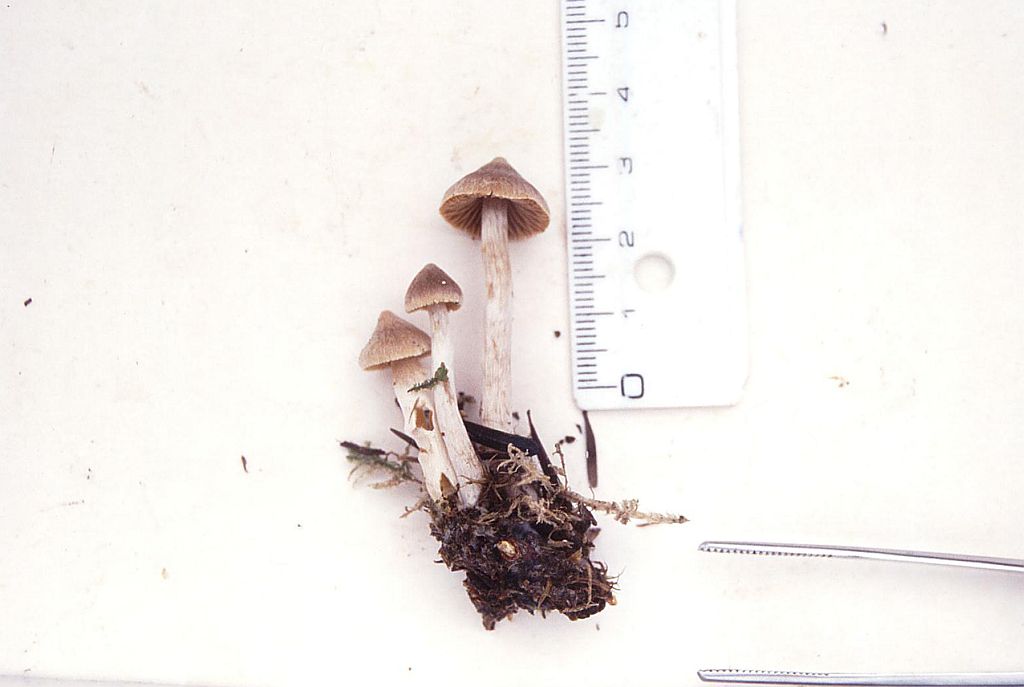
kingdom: Fungi
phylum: Basidiomycota
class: Agaricomycetes
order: Agaricales
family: Cortinariaceae
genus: Cortinarius
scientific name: Cortinarius subpaleaceus
